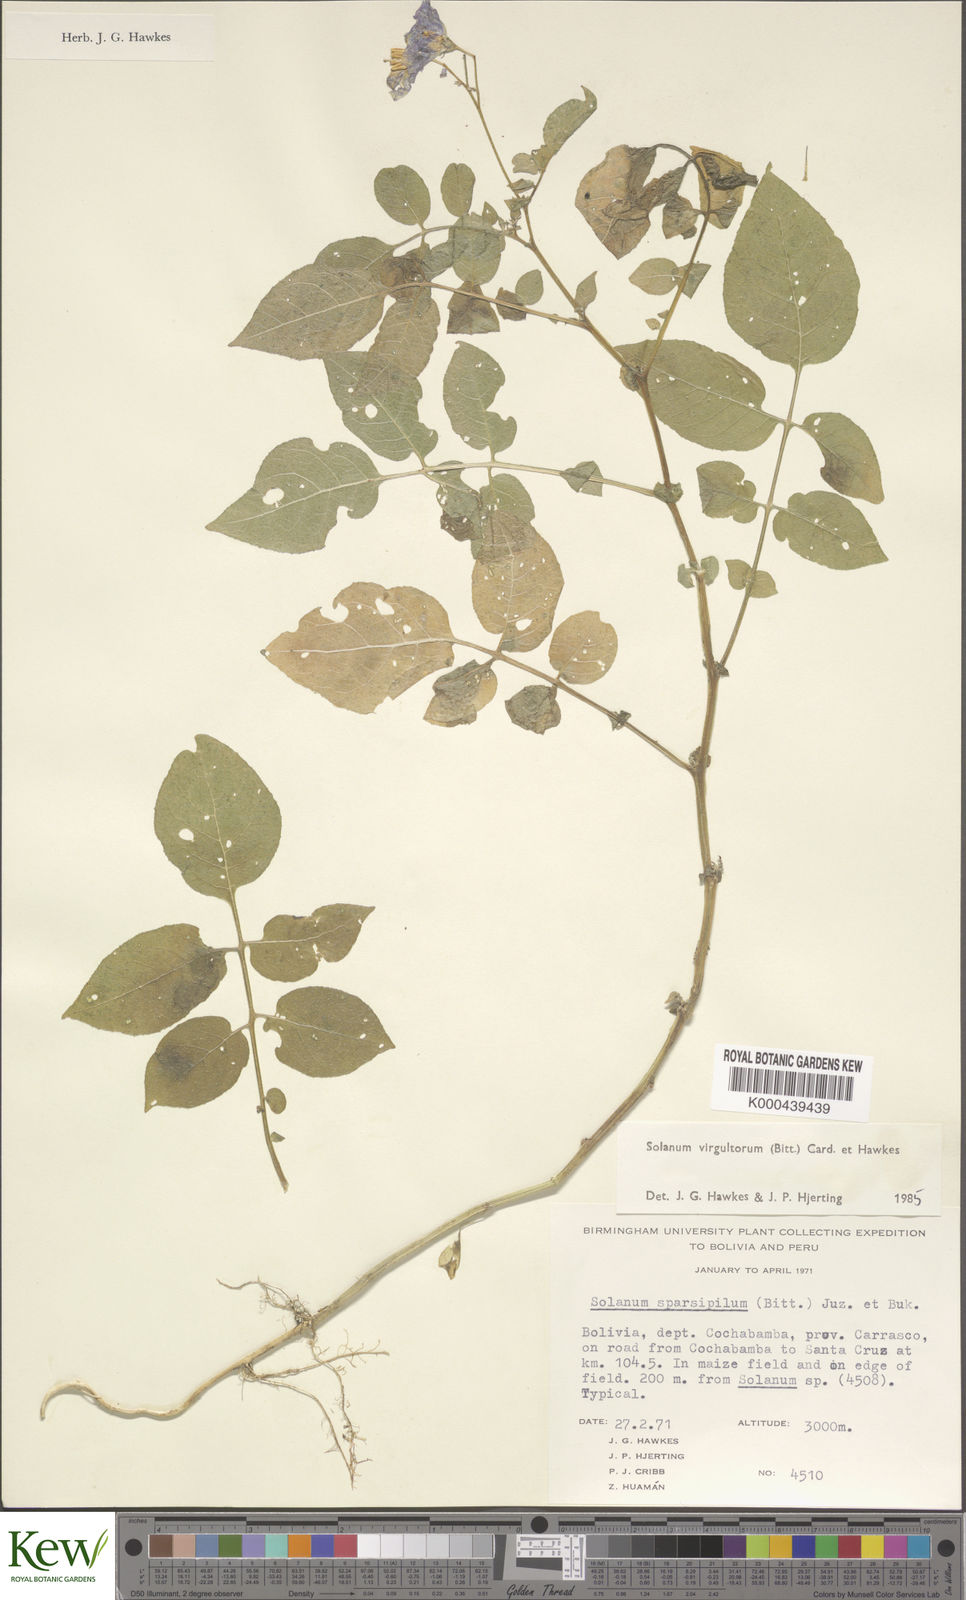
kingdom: Plantae
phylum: Tracheophyta
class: Magnoliopsida
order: Solanales
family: Solanaceae
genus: Solanum
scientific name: Solanum brevicaule
